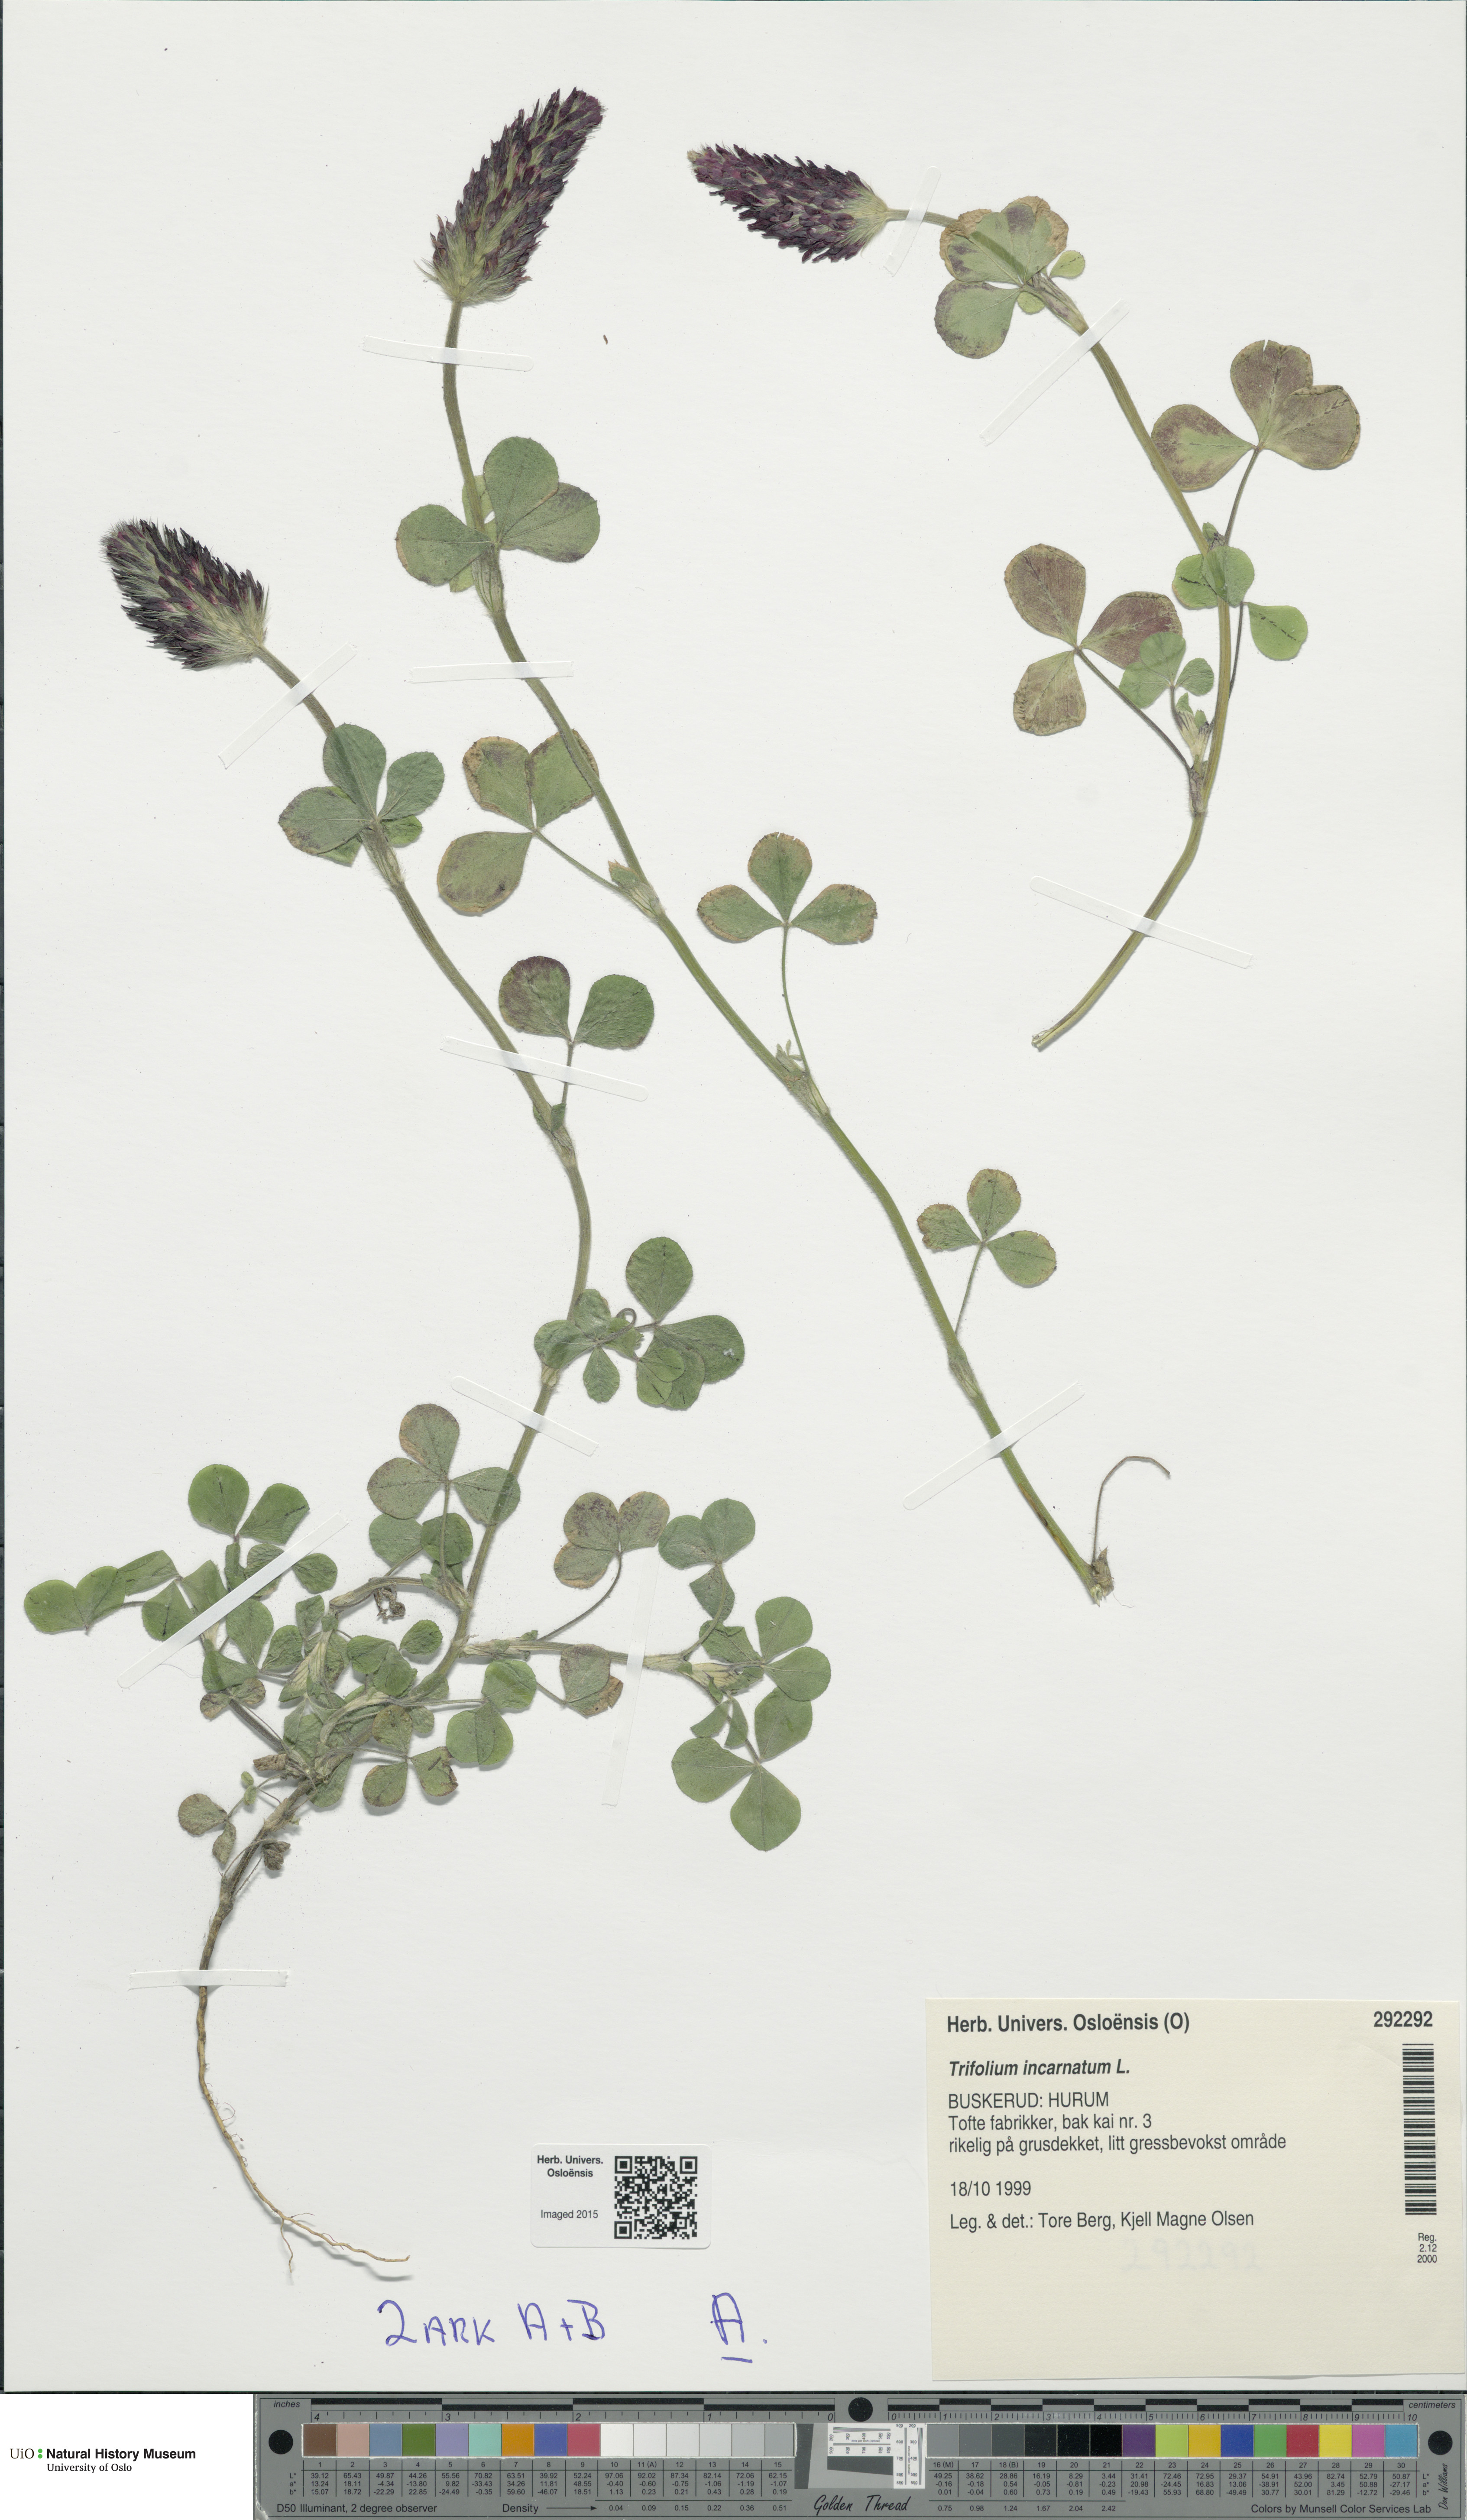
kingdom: Plantae
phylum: Tracheophyta
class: Magnoliopsida
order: Fabales
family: Fabaceae
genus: Trifolium
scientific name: Trifolium incarnatum
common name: Crimson clover
